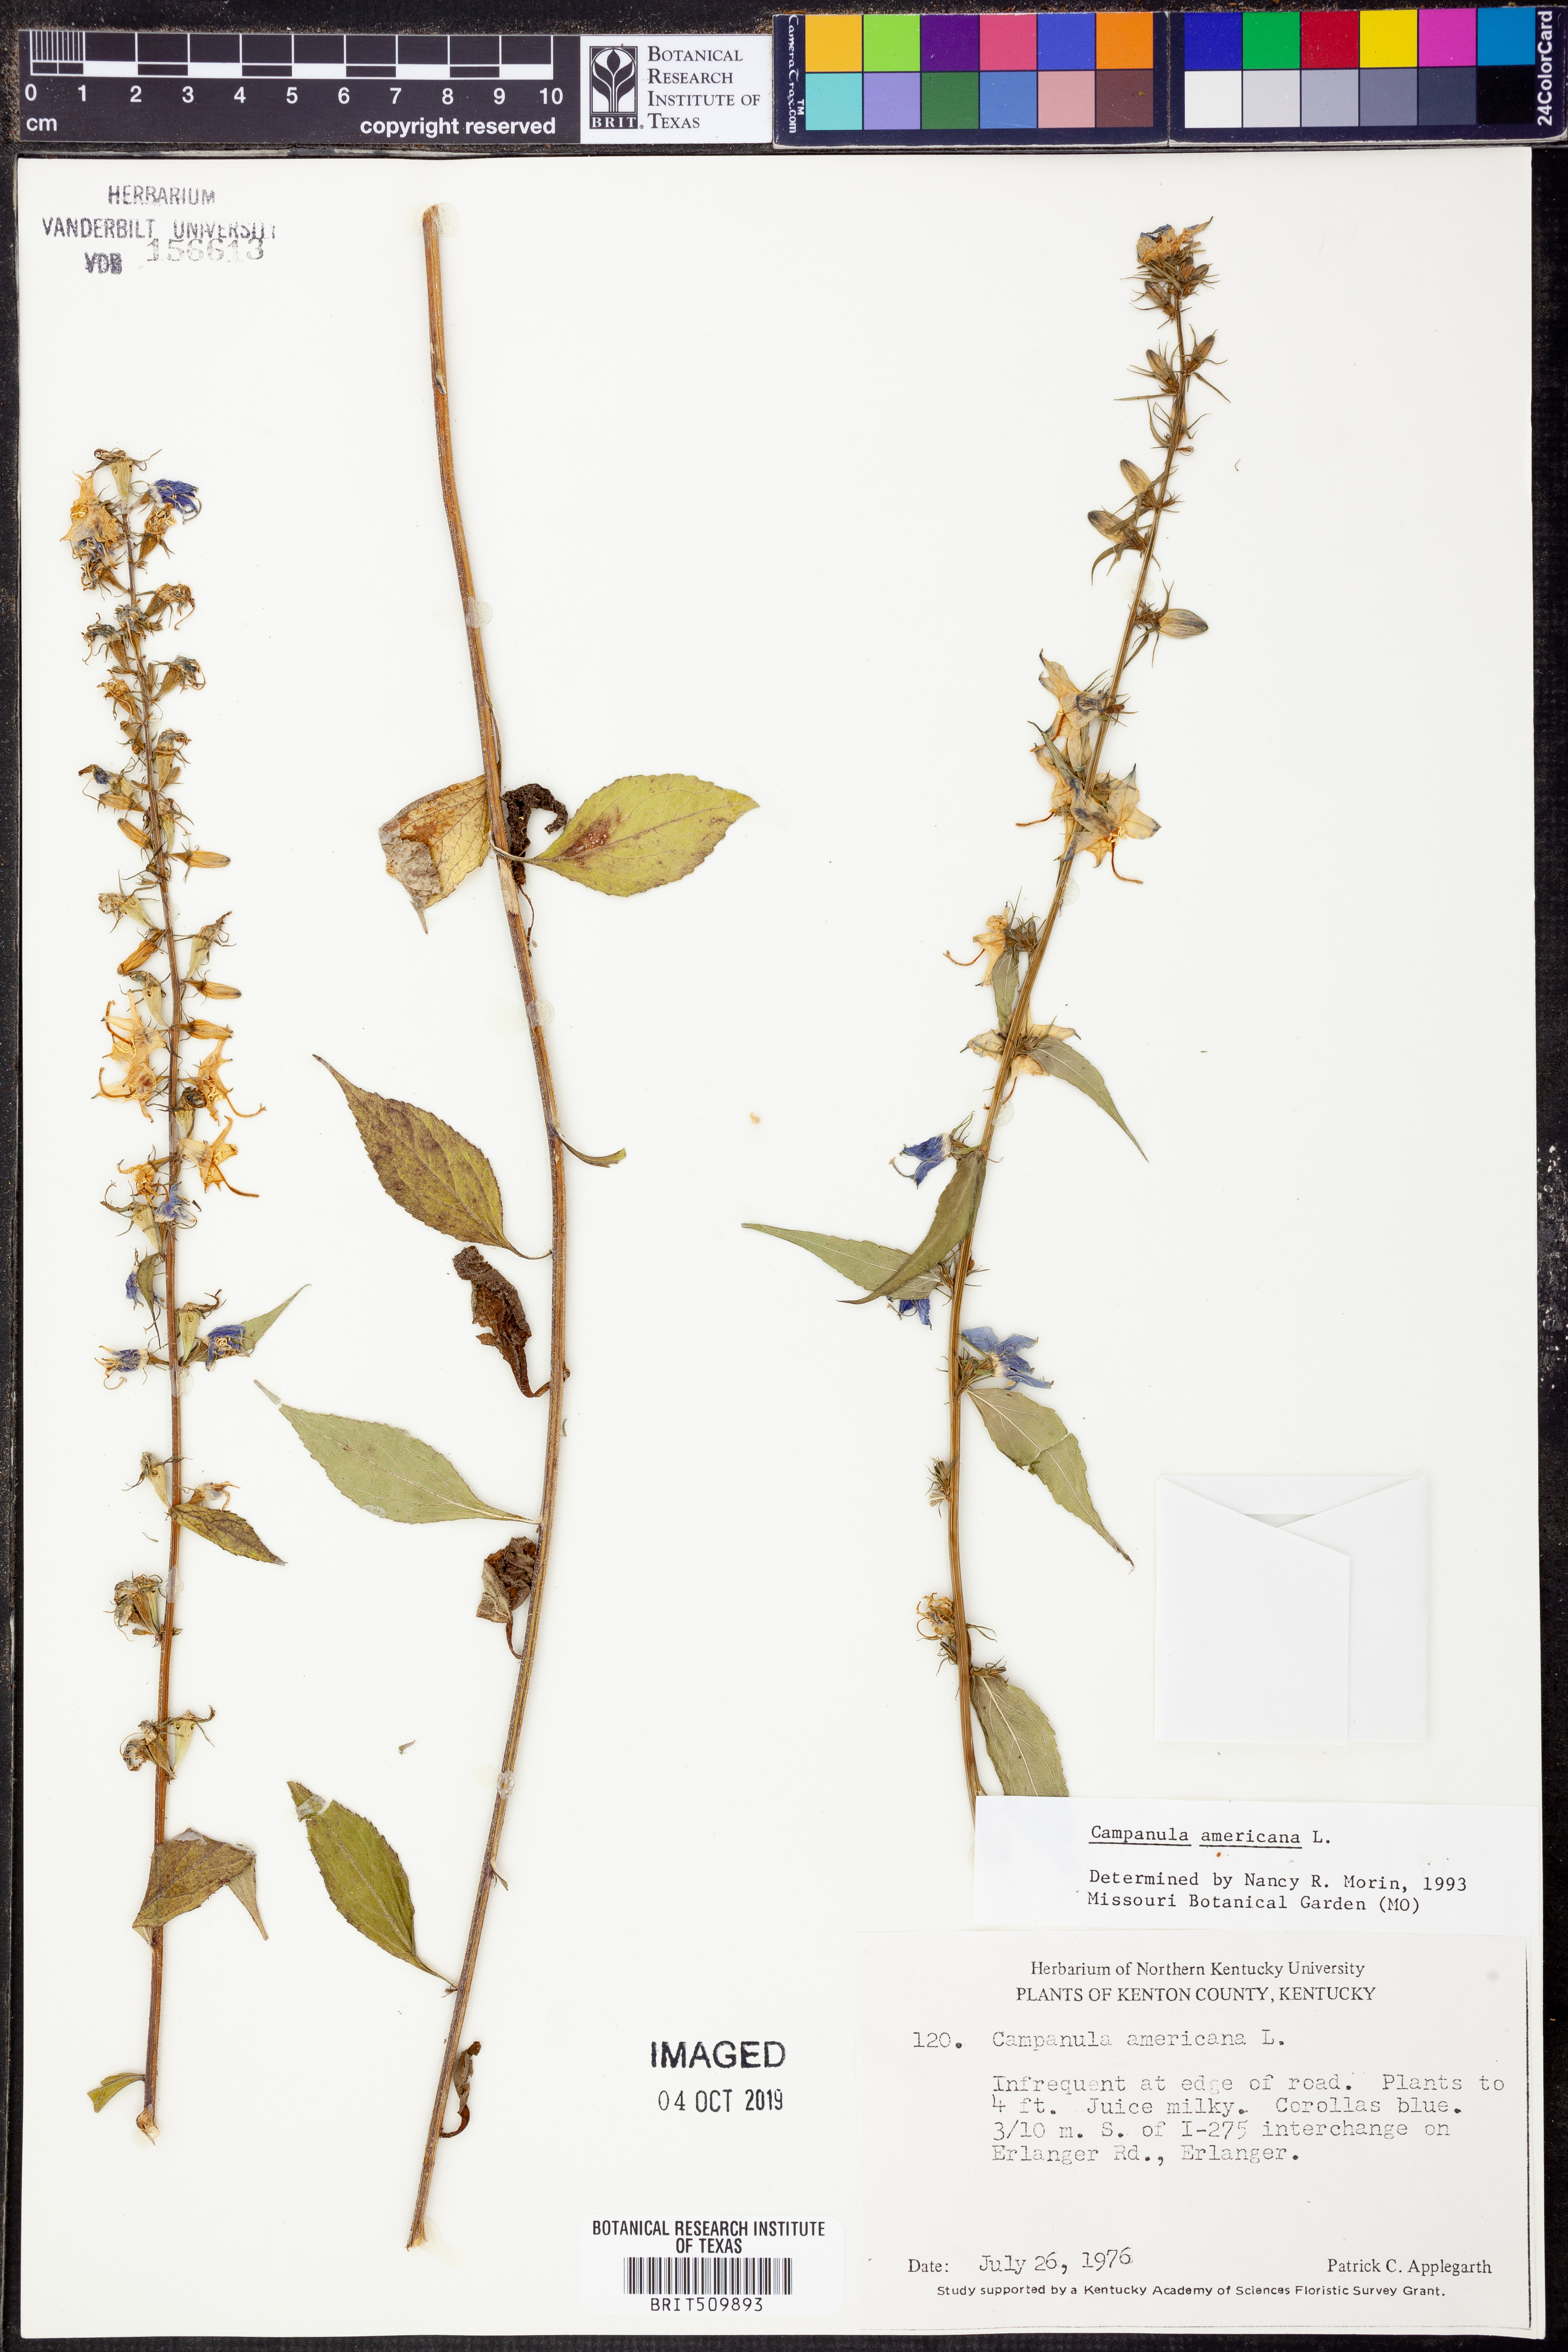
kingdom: Plantae
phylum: Tracheophyta
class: Magnoliopsida
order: Asterales
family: Campanulaceae
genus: Campanula
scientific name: Campanula americana
